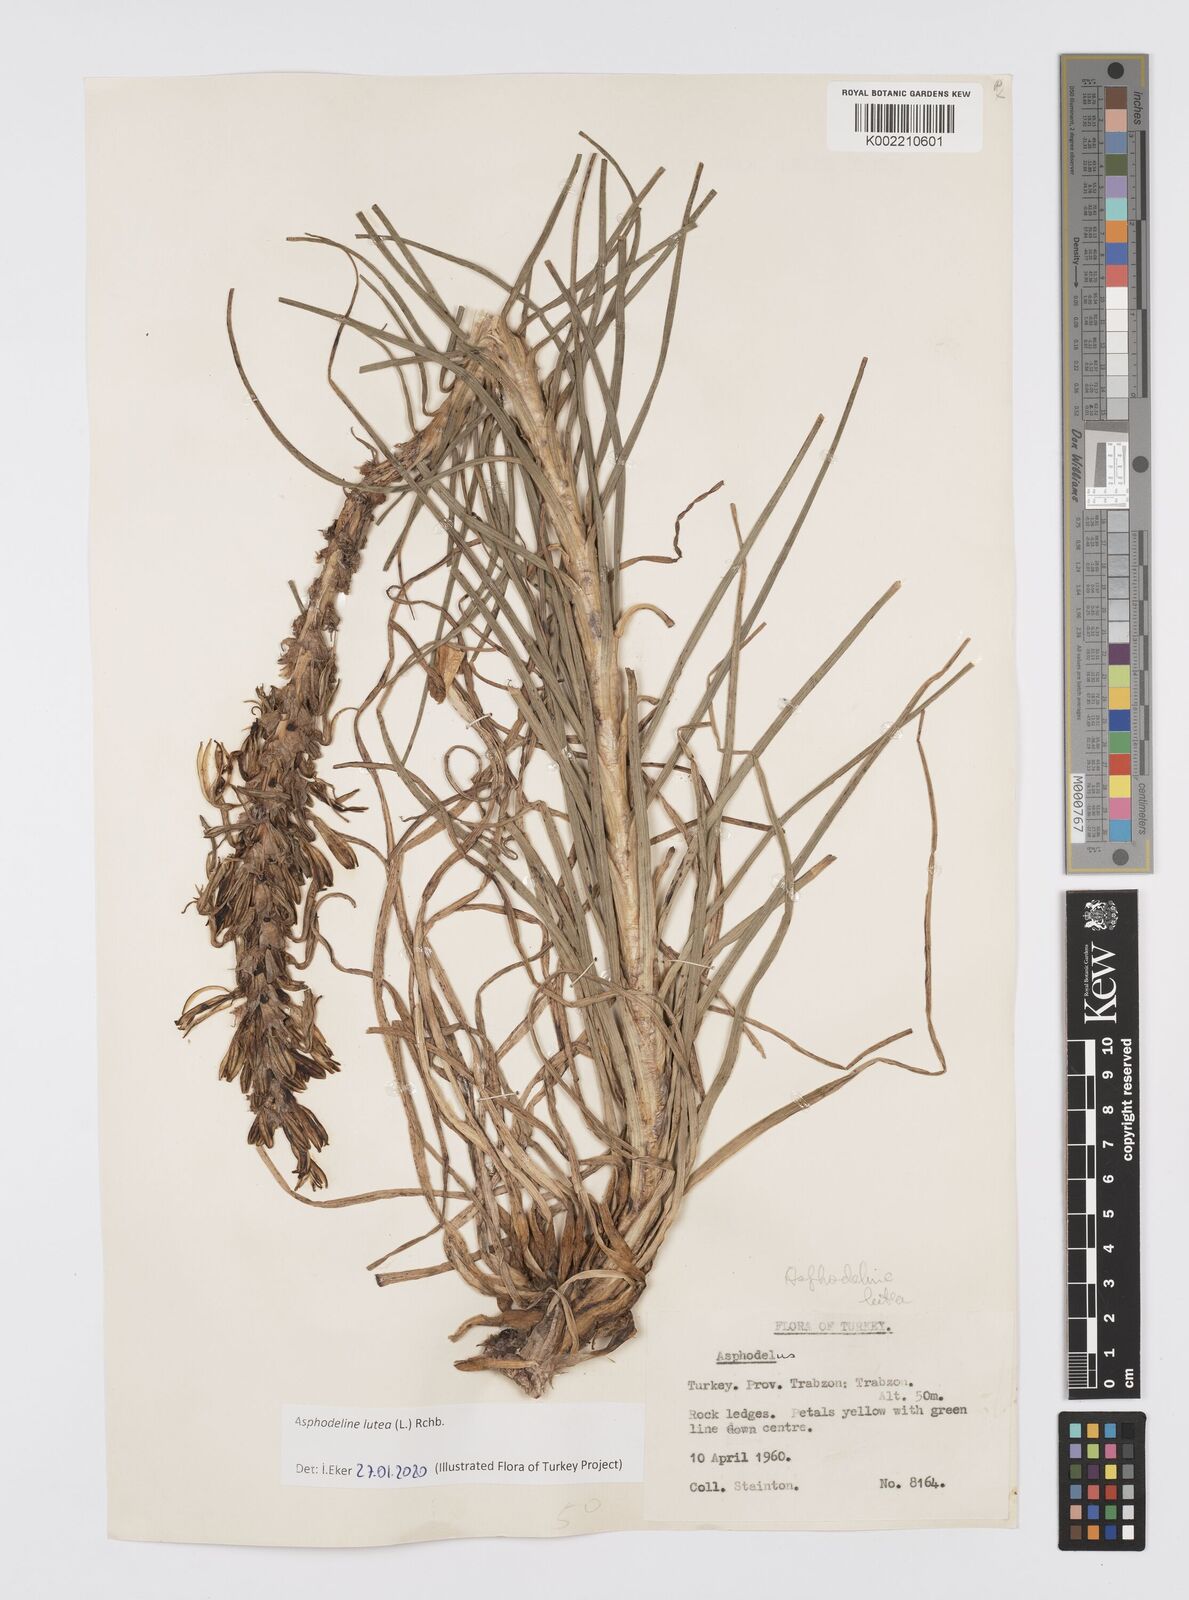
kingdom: Plantae
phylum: Tracheophyta
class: Liliopsida
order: Asparagales
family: Asphodelaceae
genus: Asphodeline
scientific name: Asphodeline lutea
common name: Yellow asphodel
